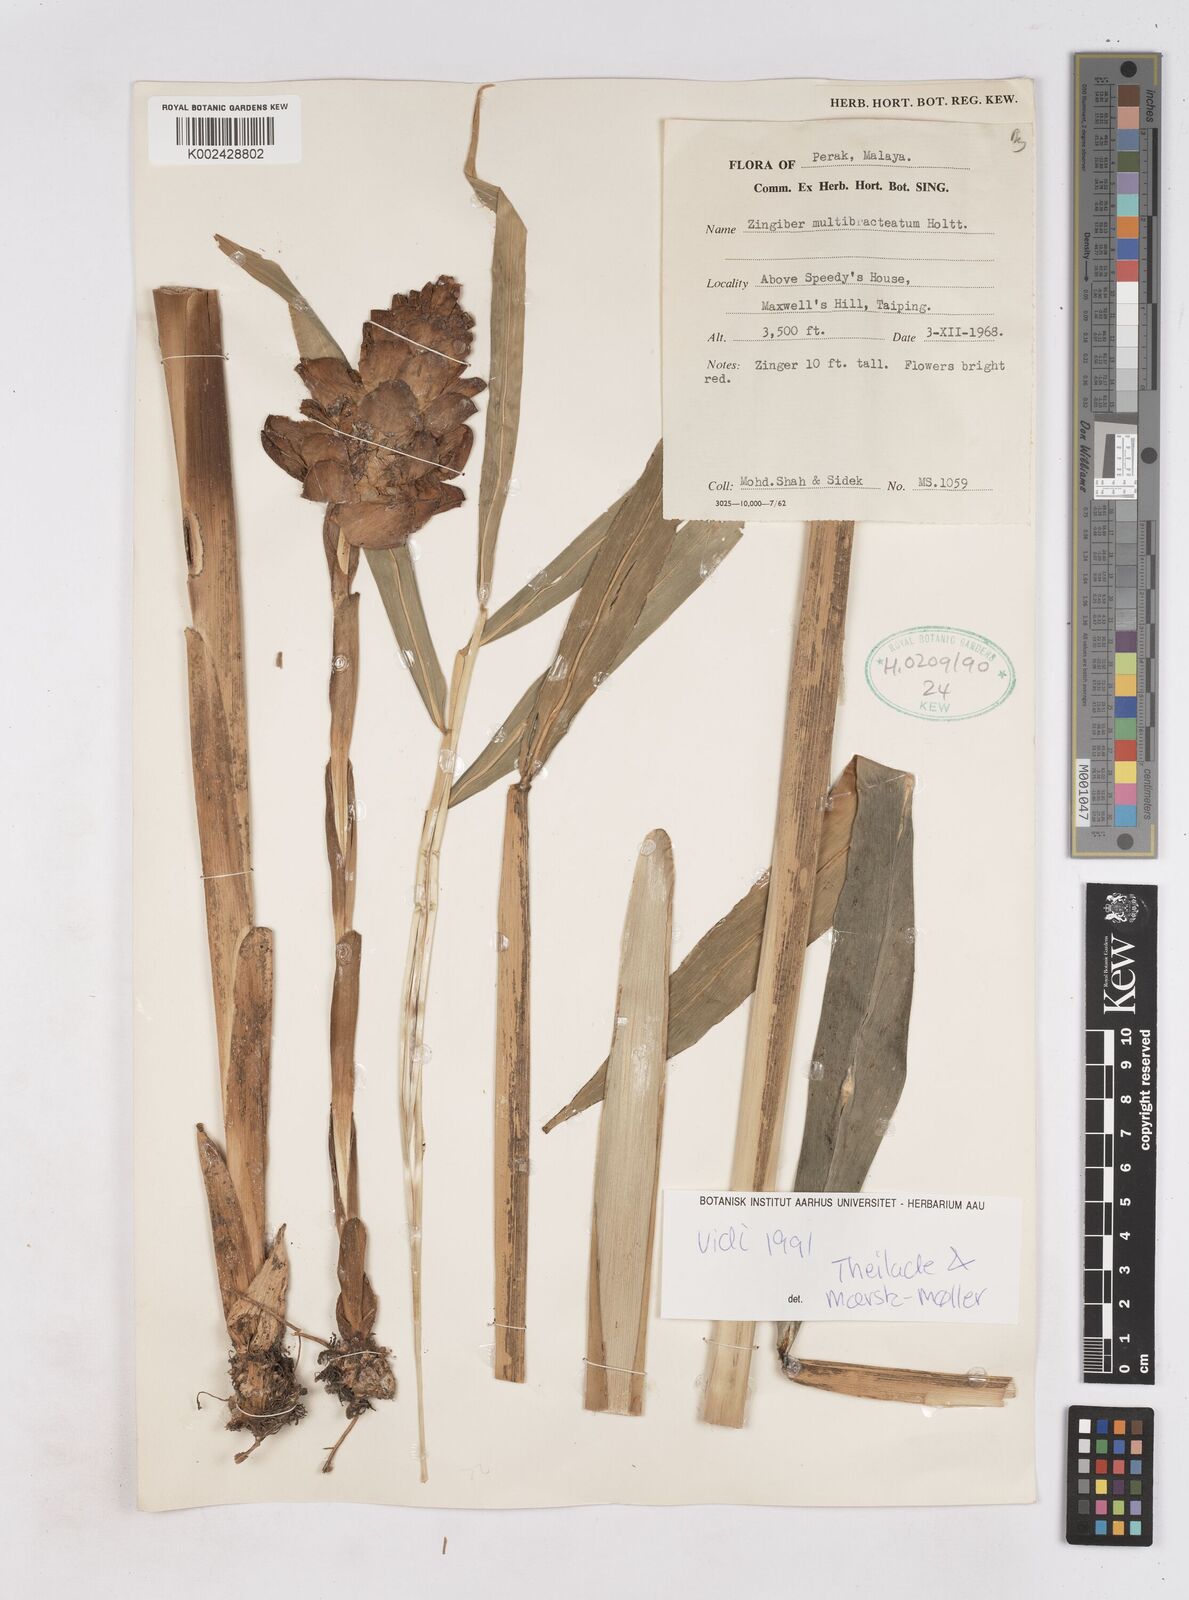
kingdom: Plantae
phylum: Tracheophyta
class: Liliopsida
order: Zingiberales
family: Zingiberaceae
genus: Zingiber
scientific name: Zingiber multibracteatum
